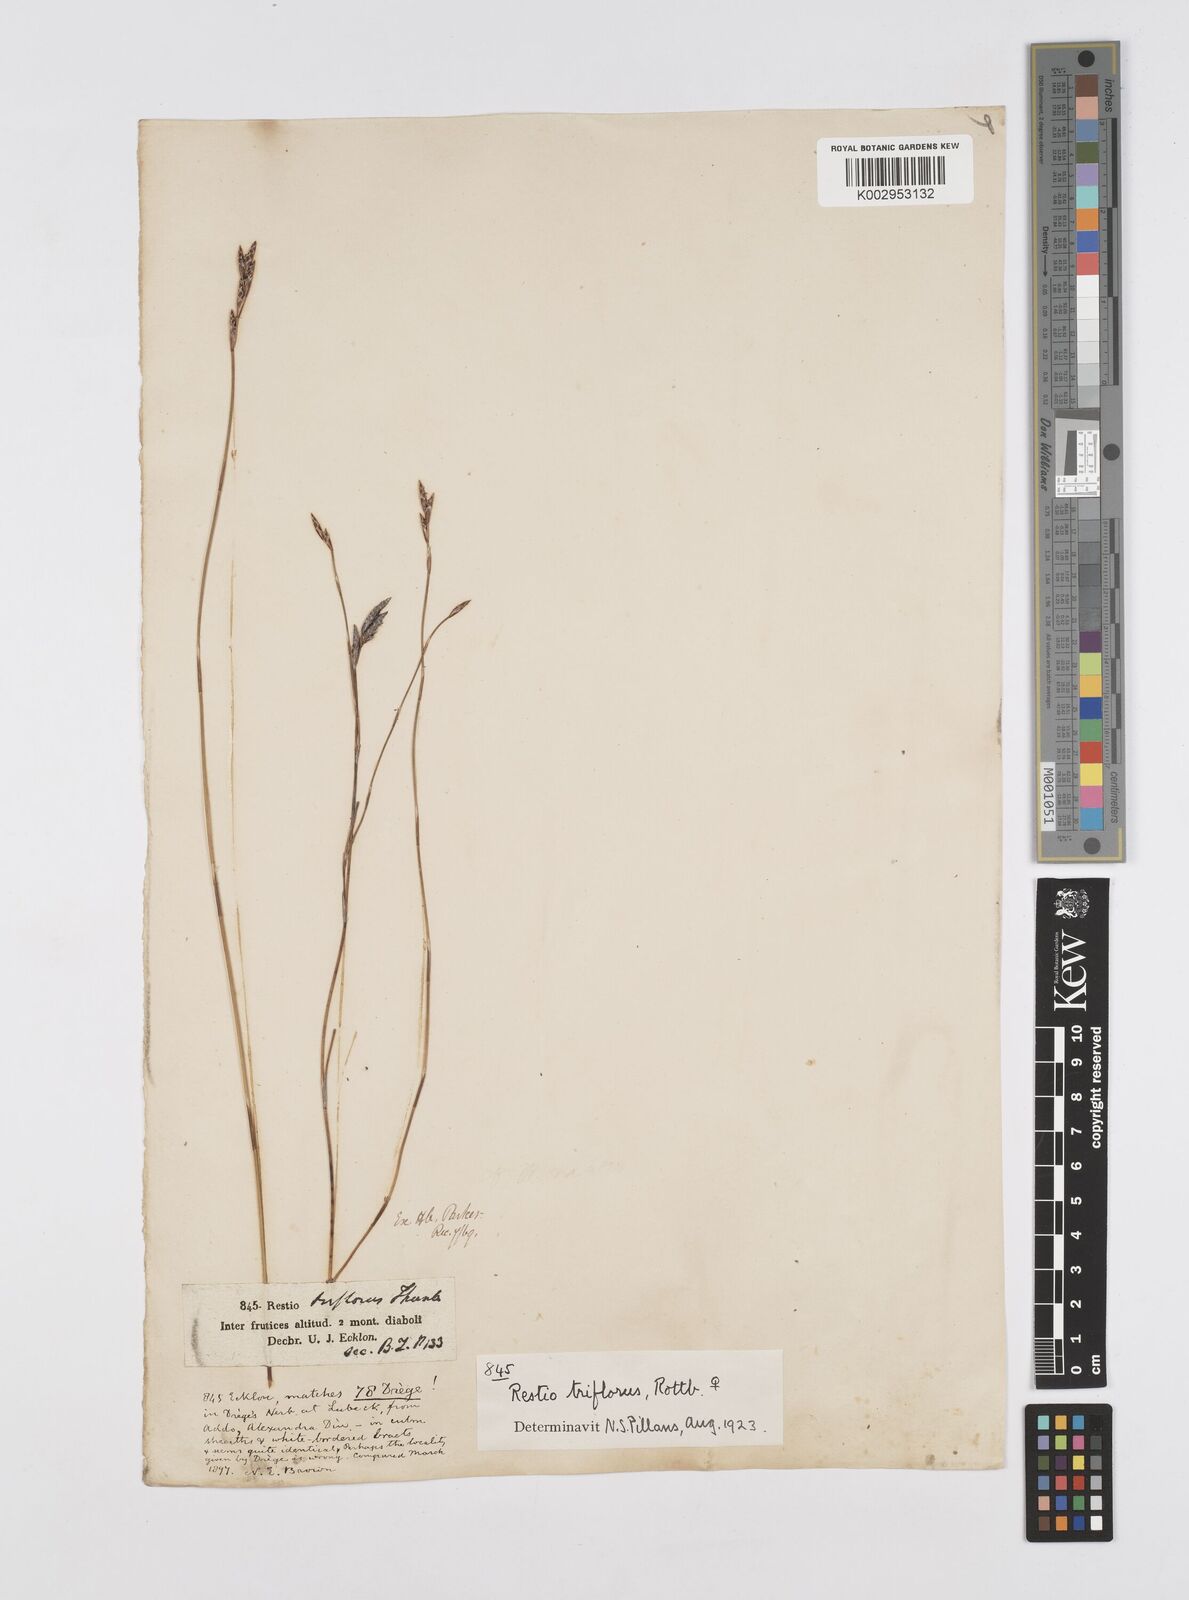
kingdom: Plantae
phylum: Tracheophyta
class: Liliopsida
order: Poales
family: Restionaceae
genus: Restio
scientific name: Restio triflorus
